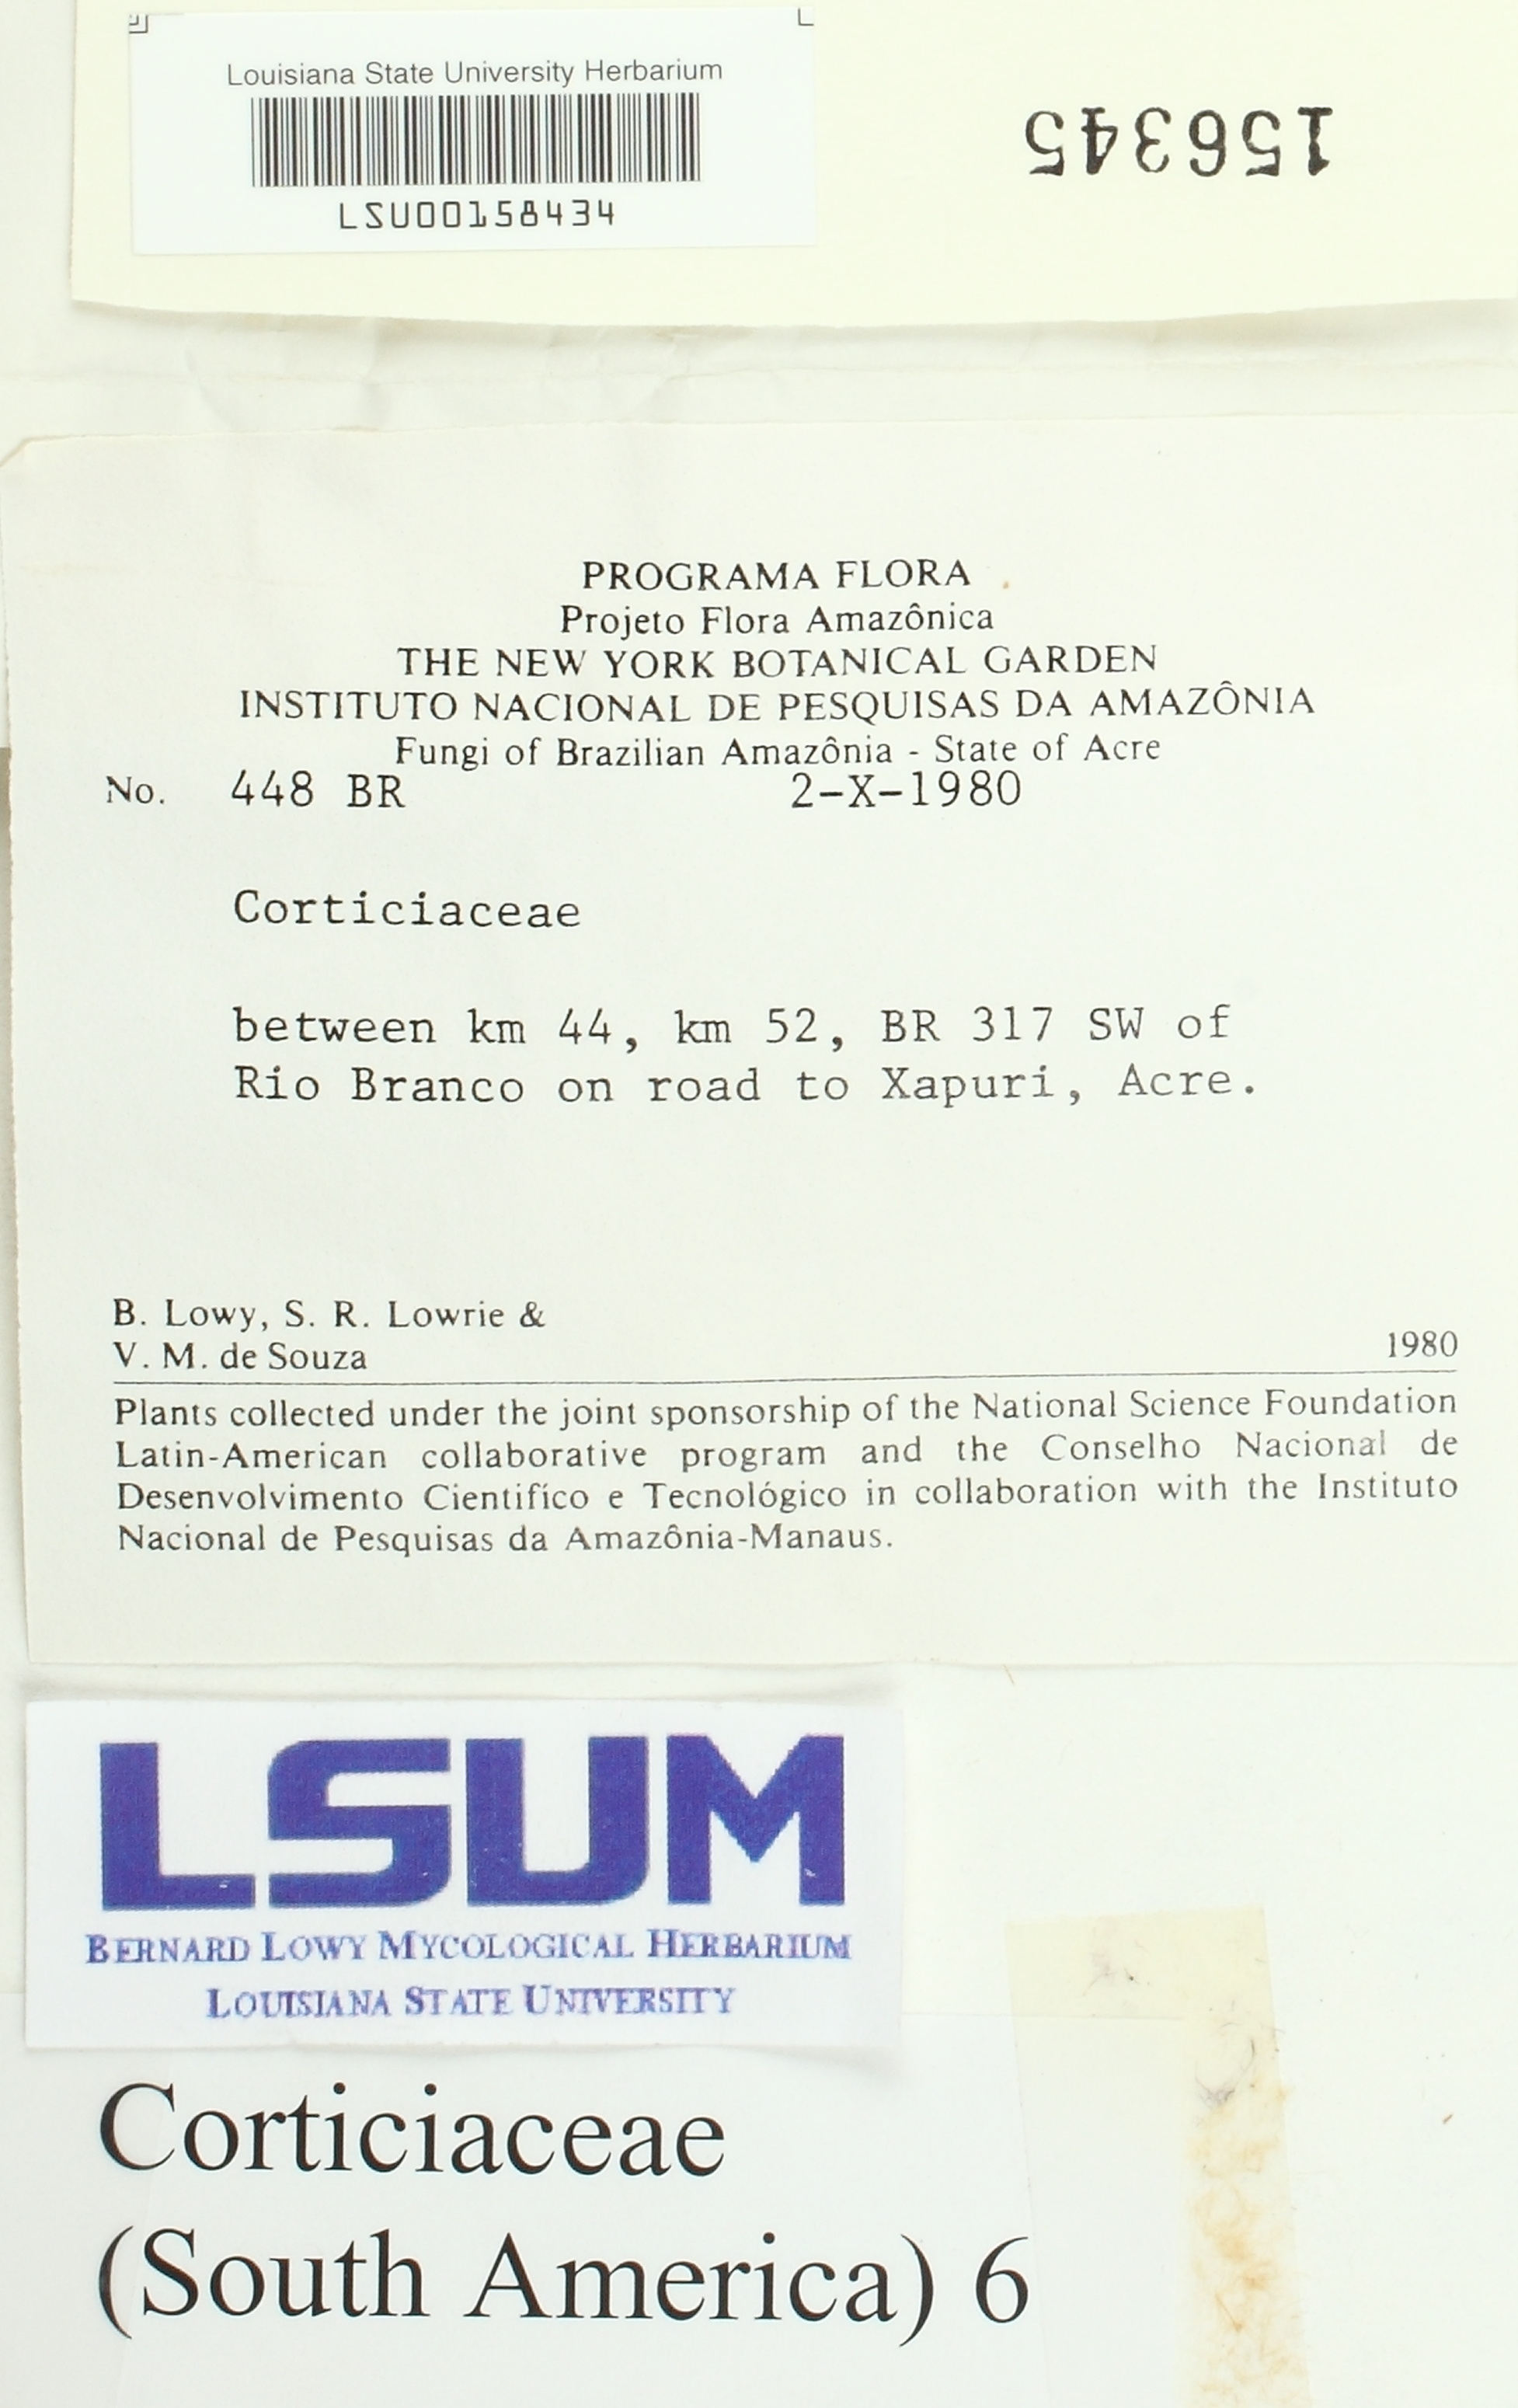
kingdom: Fungi
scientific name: Fungi
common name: Fungi
